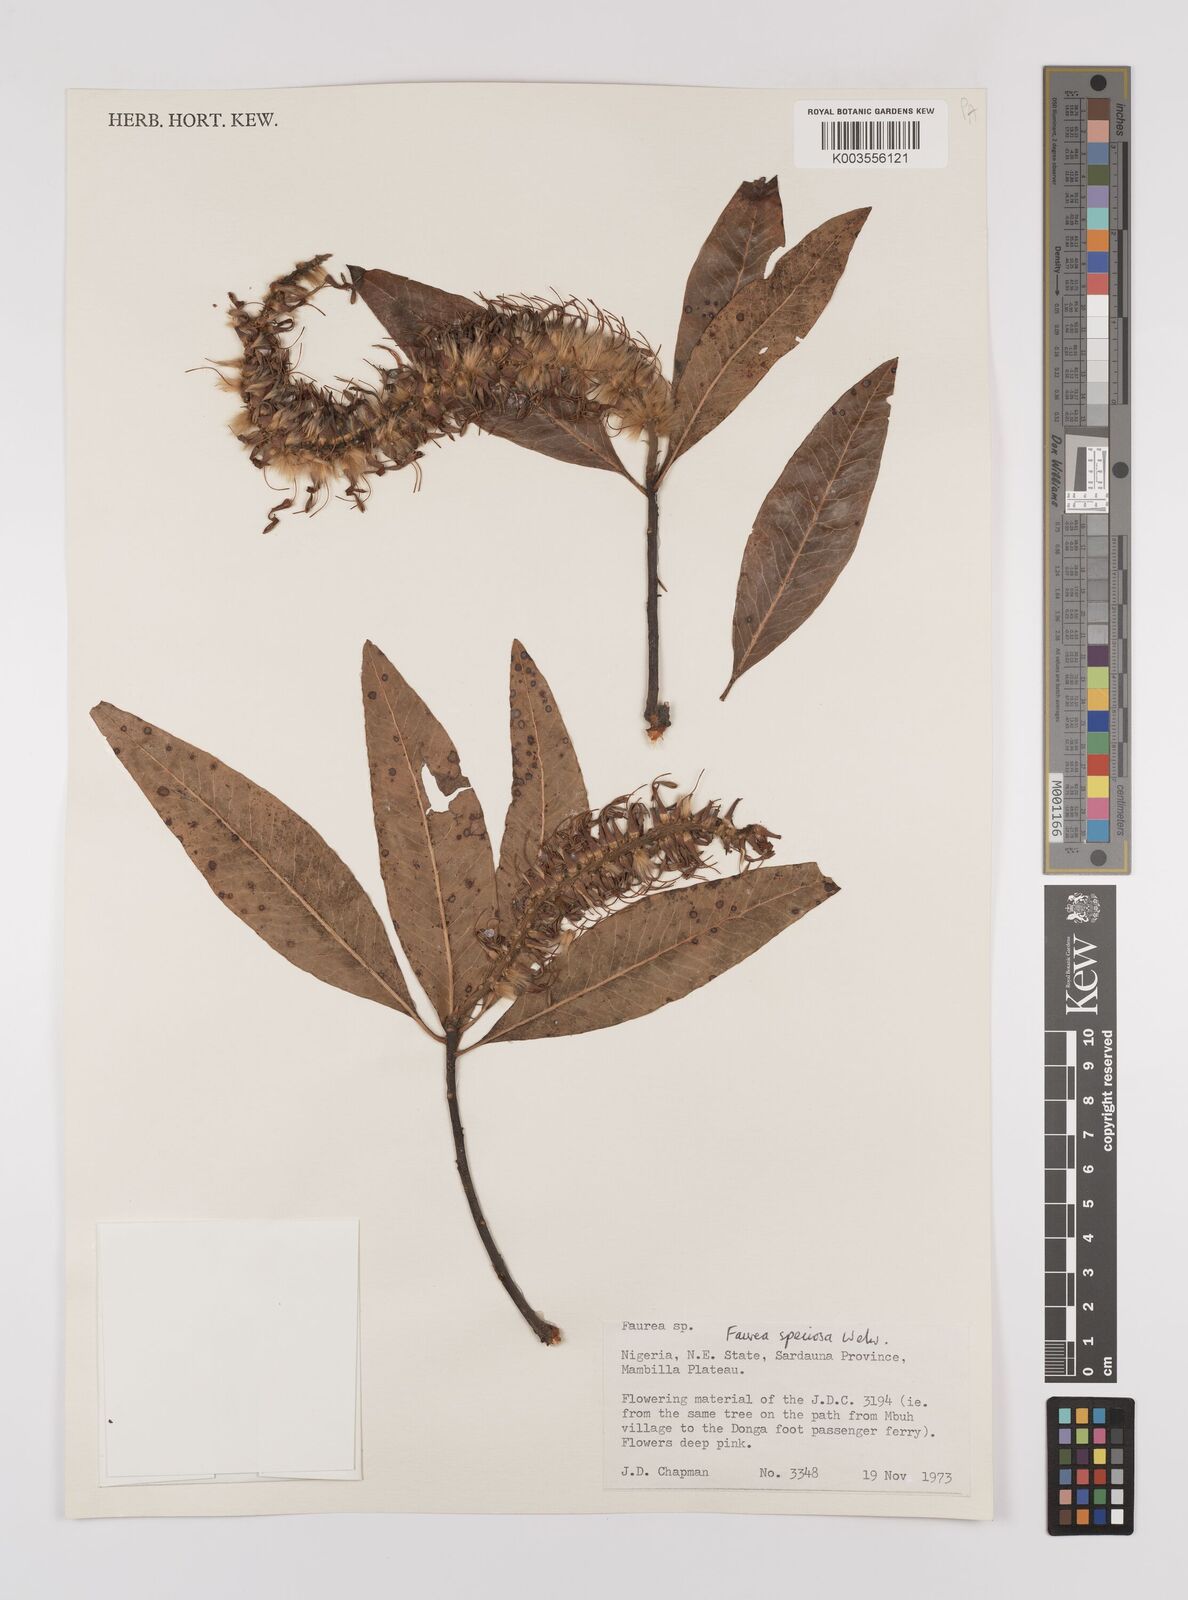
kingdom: Plantae
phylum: Tracheophyta
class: Magnoliopsida
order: Proteales
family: Proteaceae
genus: Faurea
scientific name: Faurea rochetiana
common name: Broad-leaved beech
